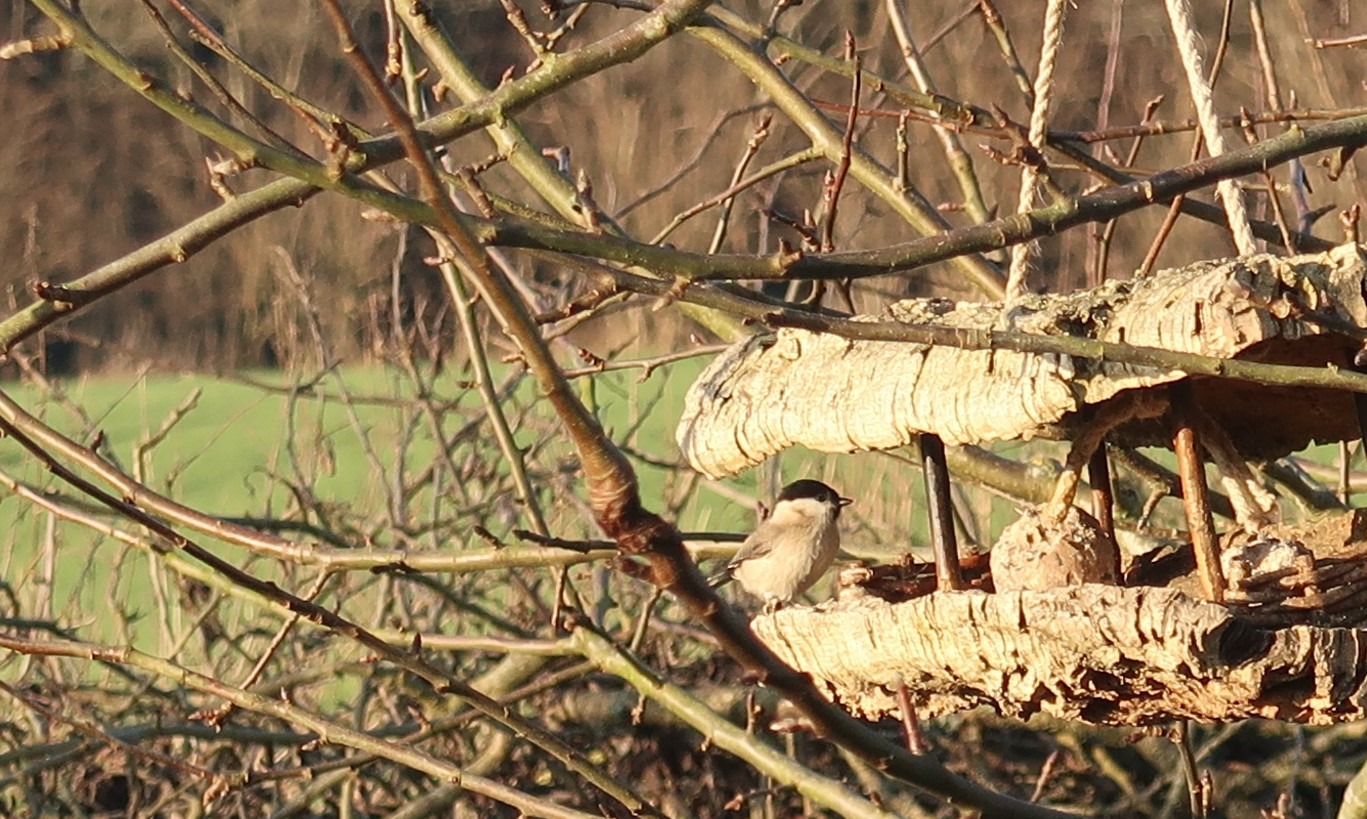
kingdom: Animalia
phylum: Chordata
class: Aves
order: Passeriformes
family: Paridae
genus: Poecile
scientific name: Poecile palustris
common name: Sumpmejse
